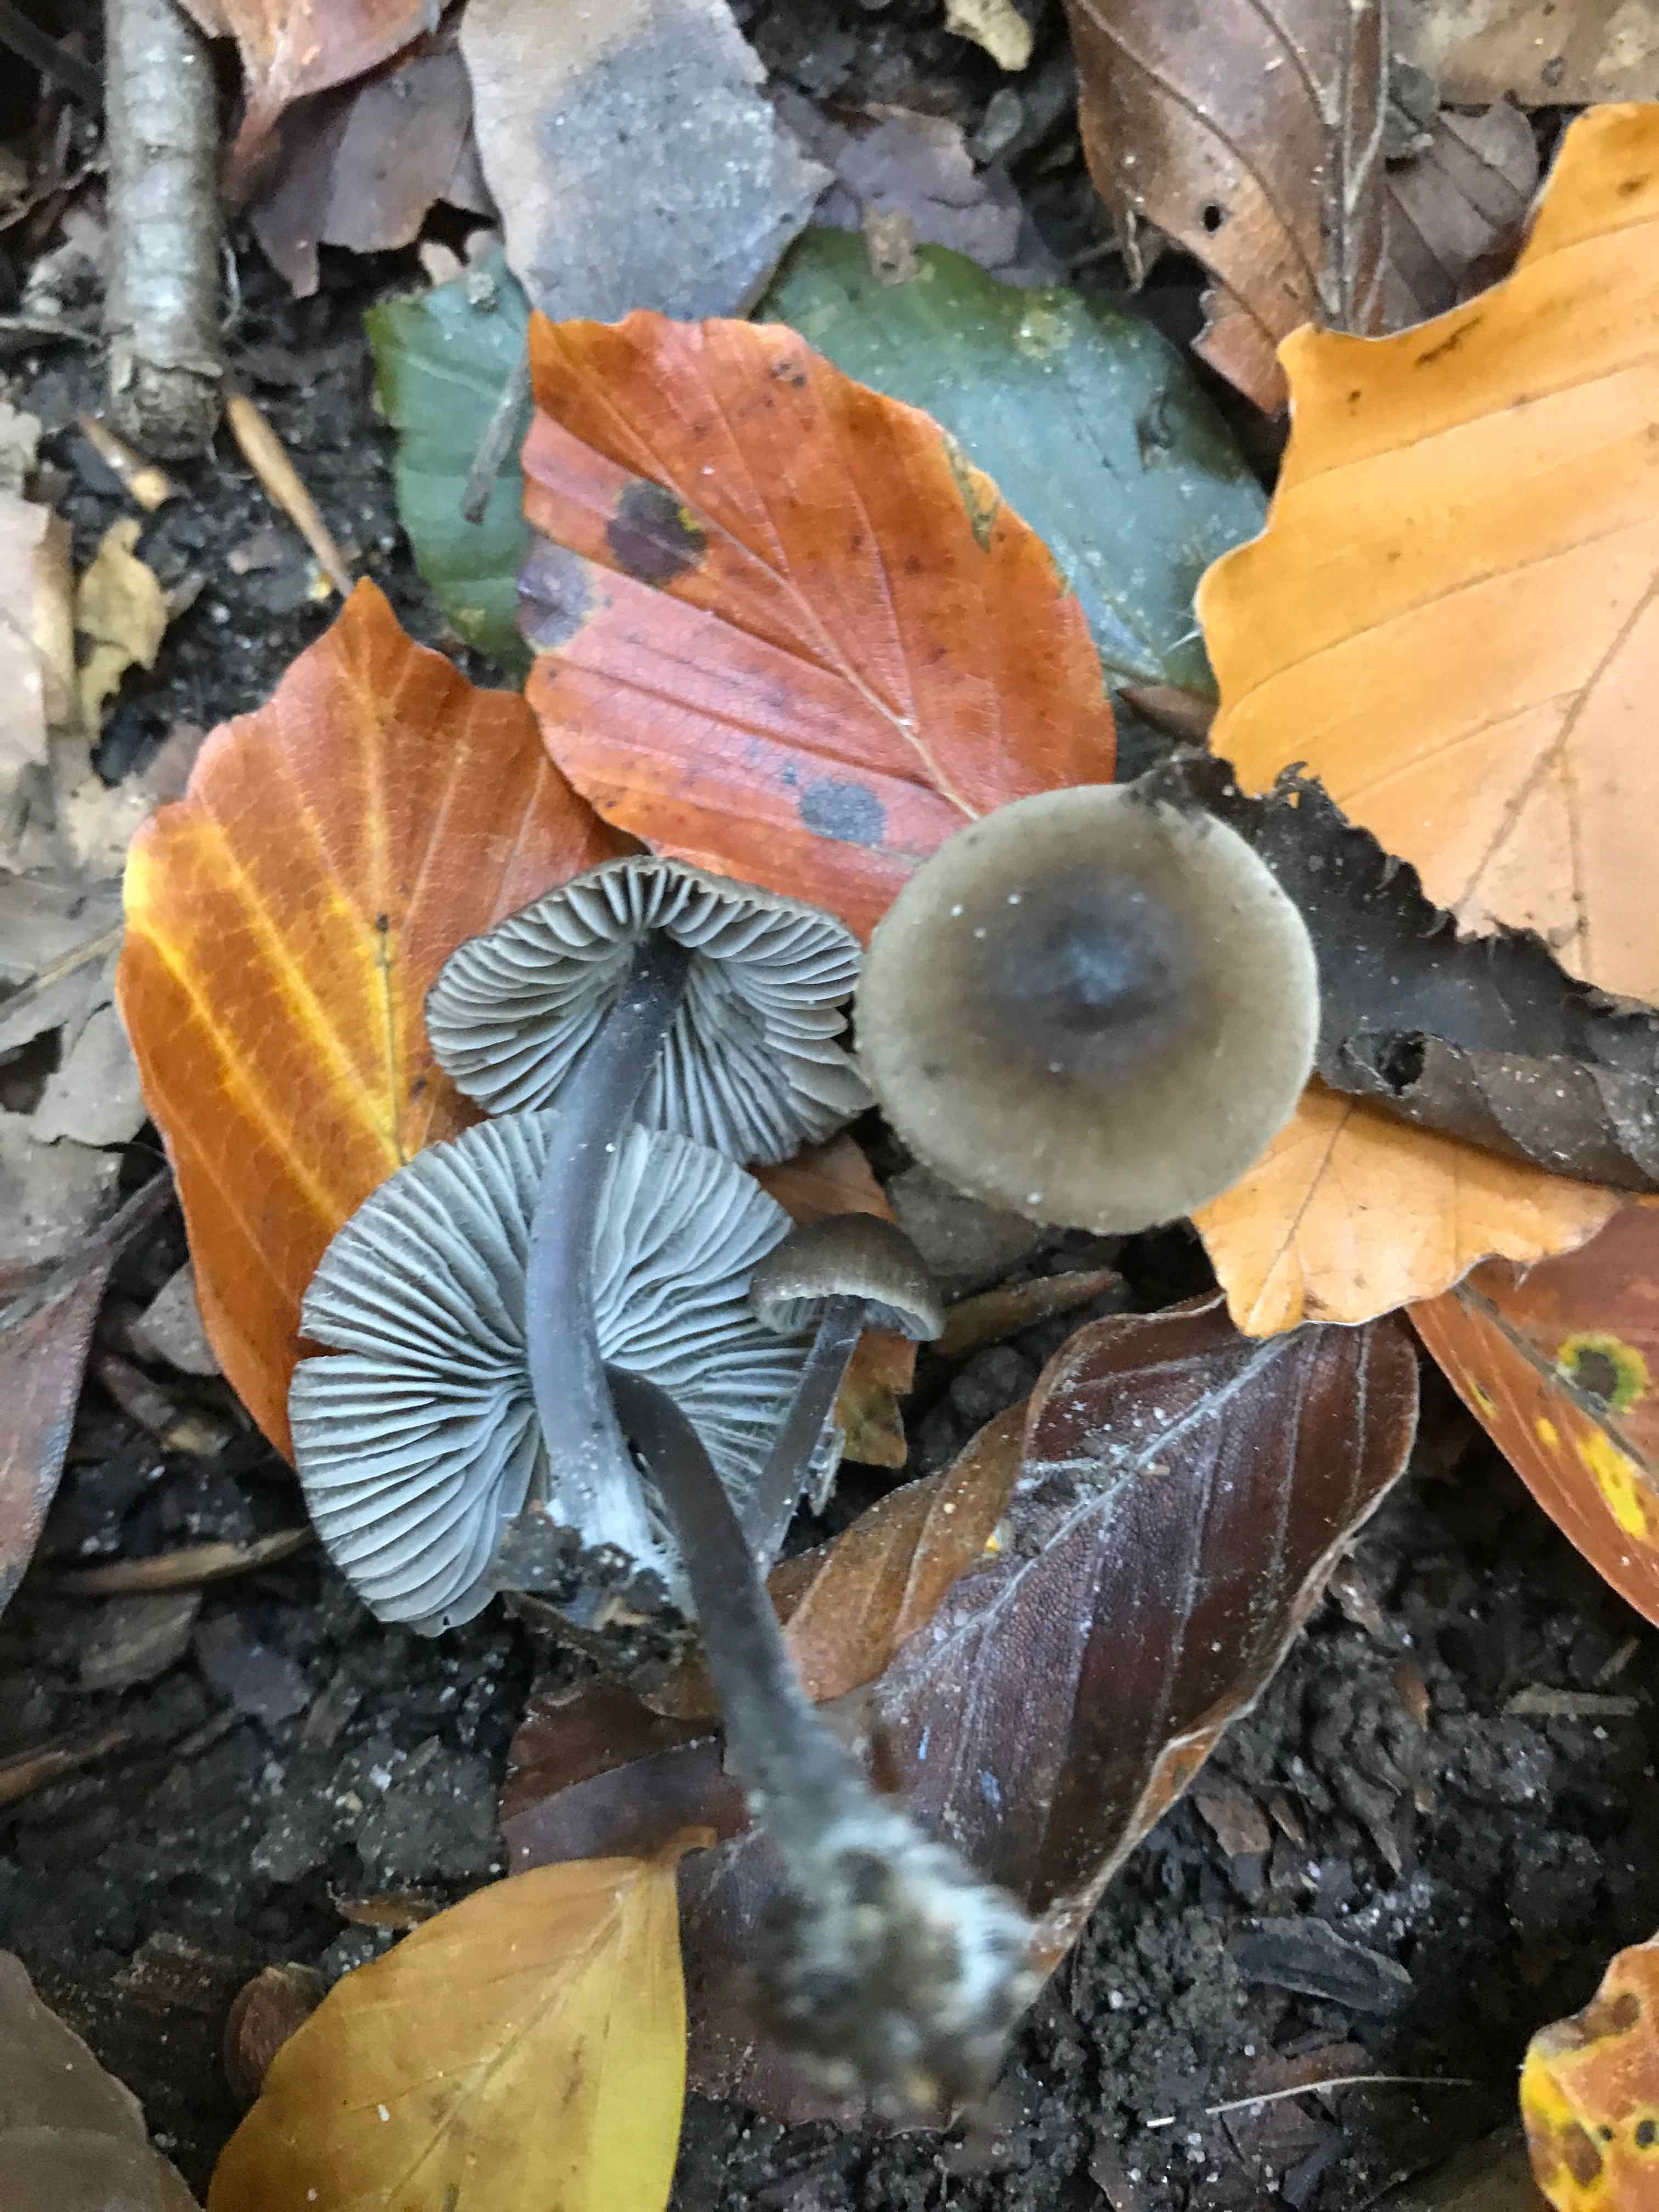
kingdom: Fungi
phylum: Basidiomycota
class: Agaricomycetes
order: Agaricales
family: Mycenaceae
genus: Mycena
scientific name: Mycena
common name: huesvamp
